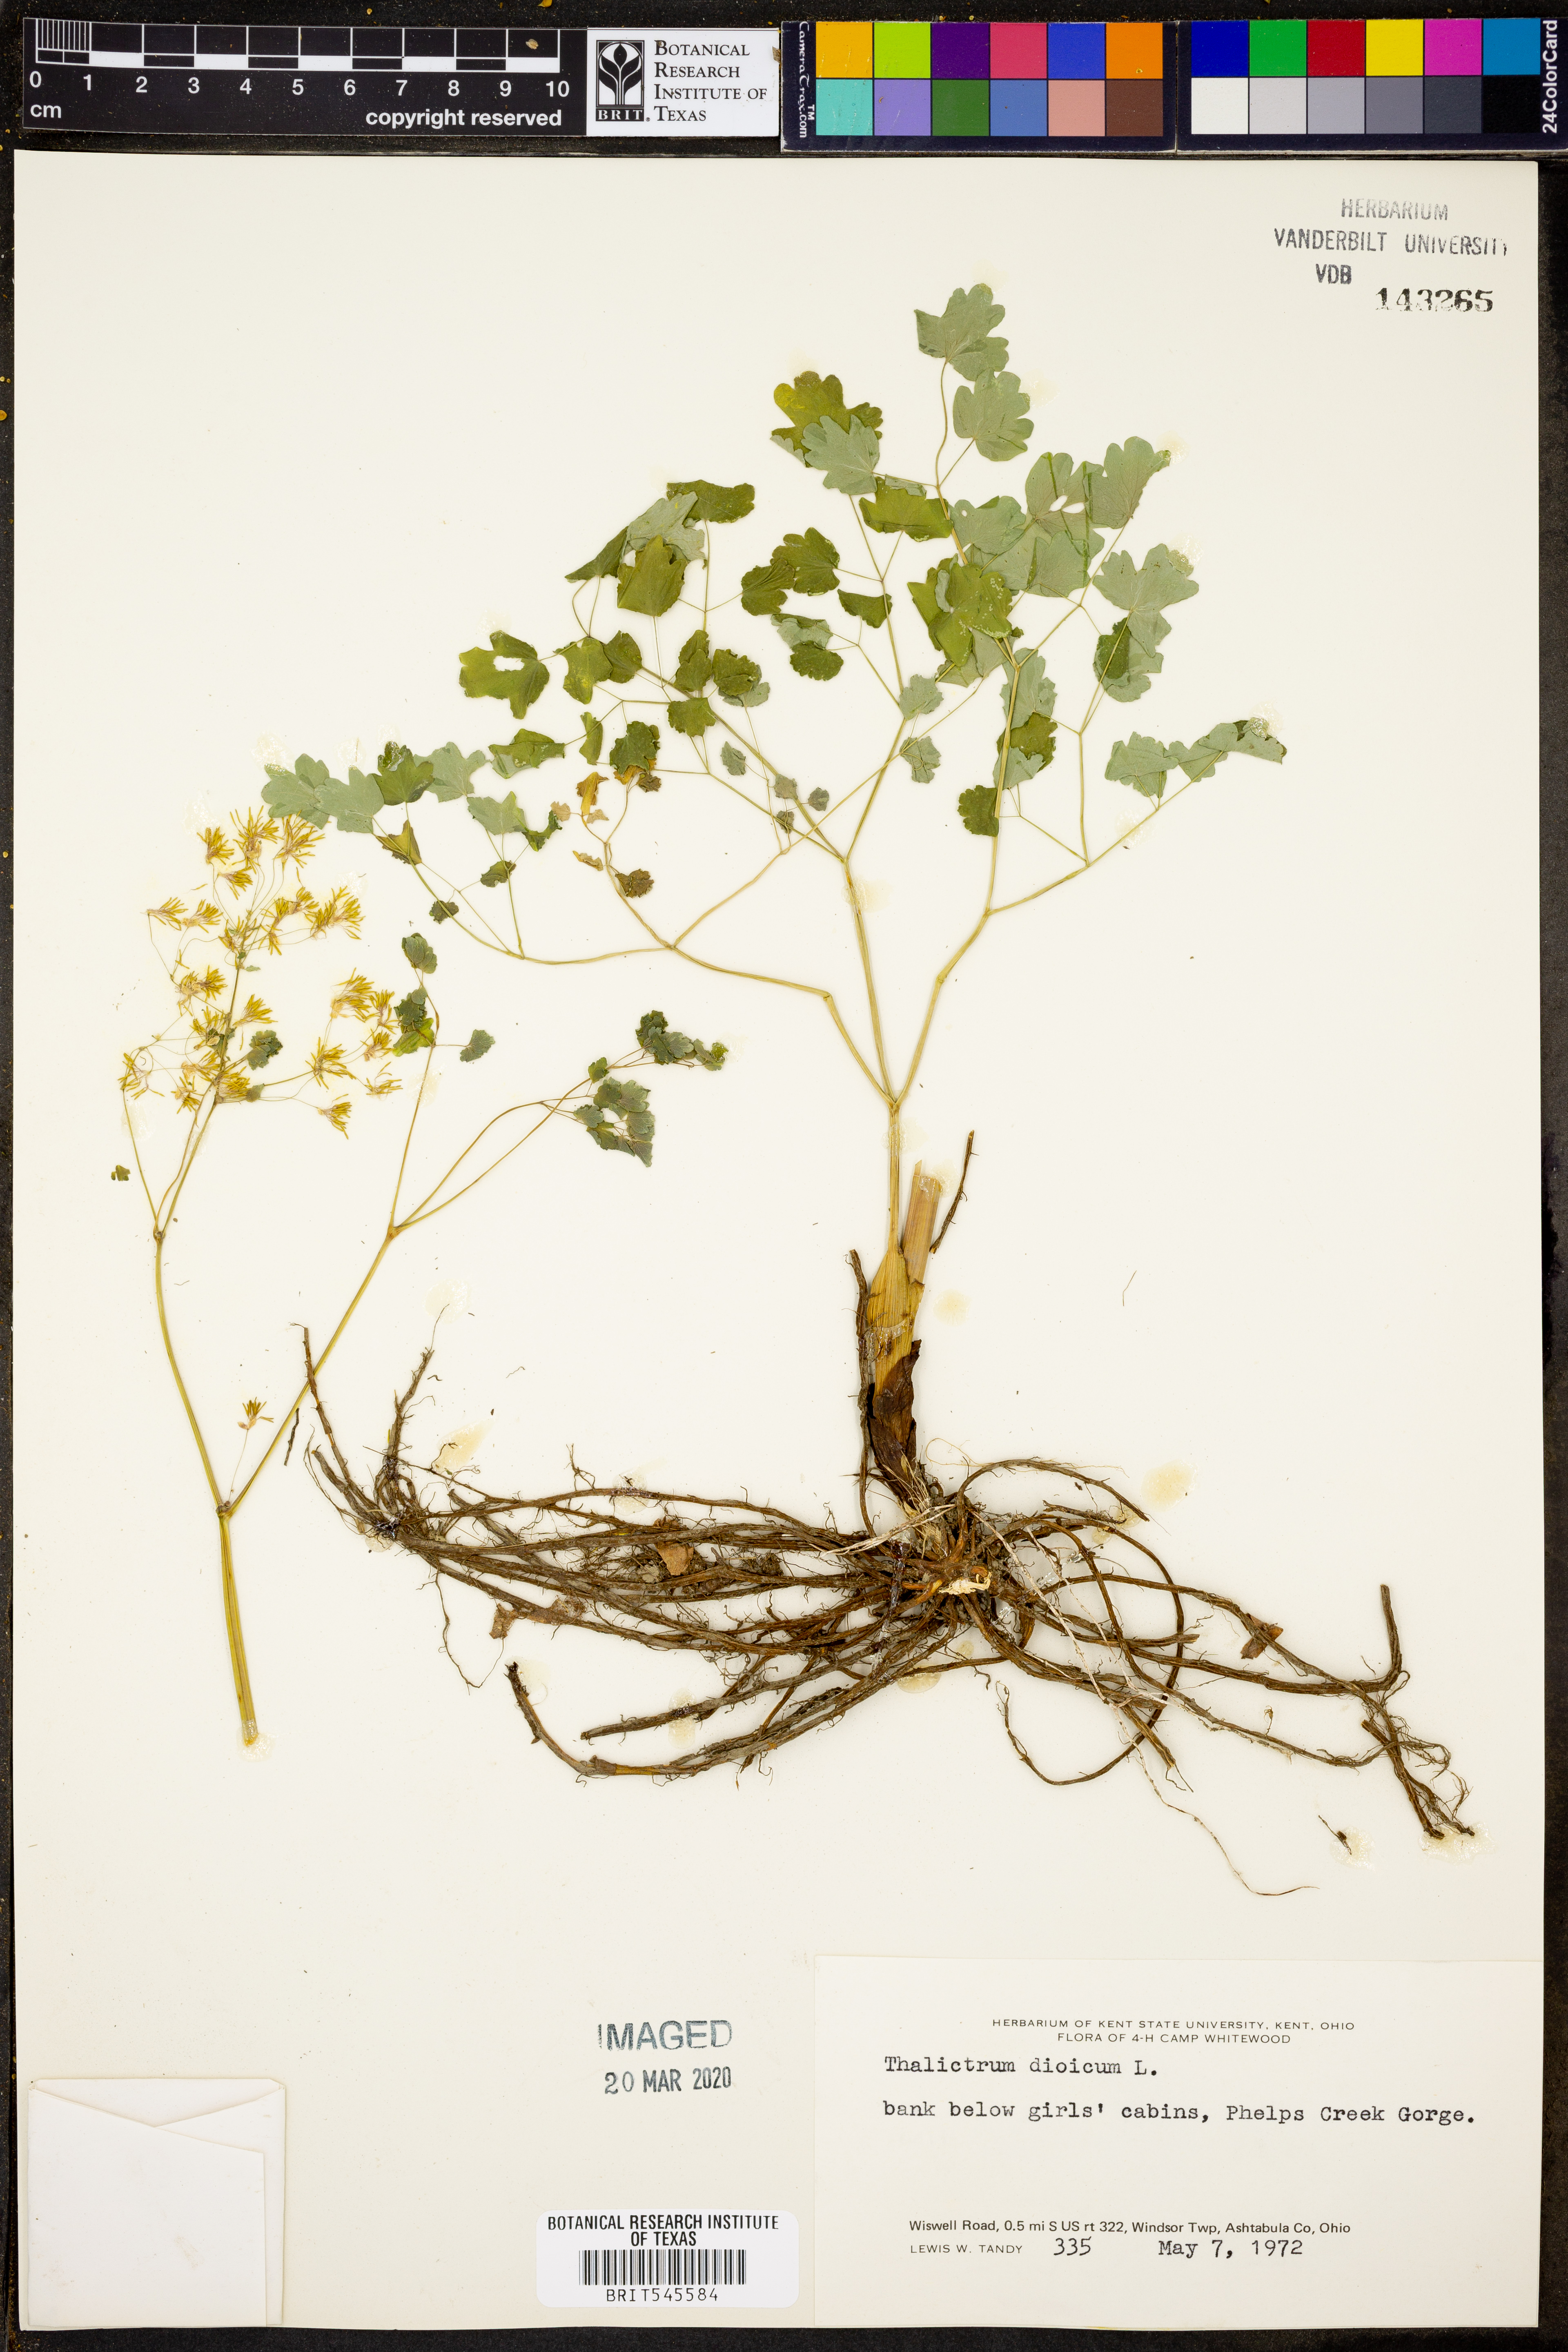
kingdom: Plantae
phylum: Tracheophyta
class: Magnoliopsida
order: Ranunculales
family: Ranunculaceae
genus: Thalictrum
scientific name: Thalictrum dioicum
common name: Early meadow-rue
